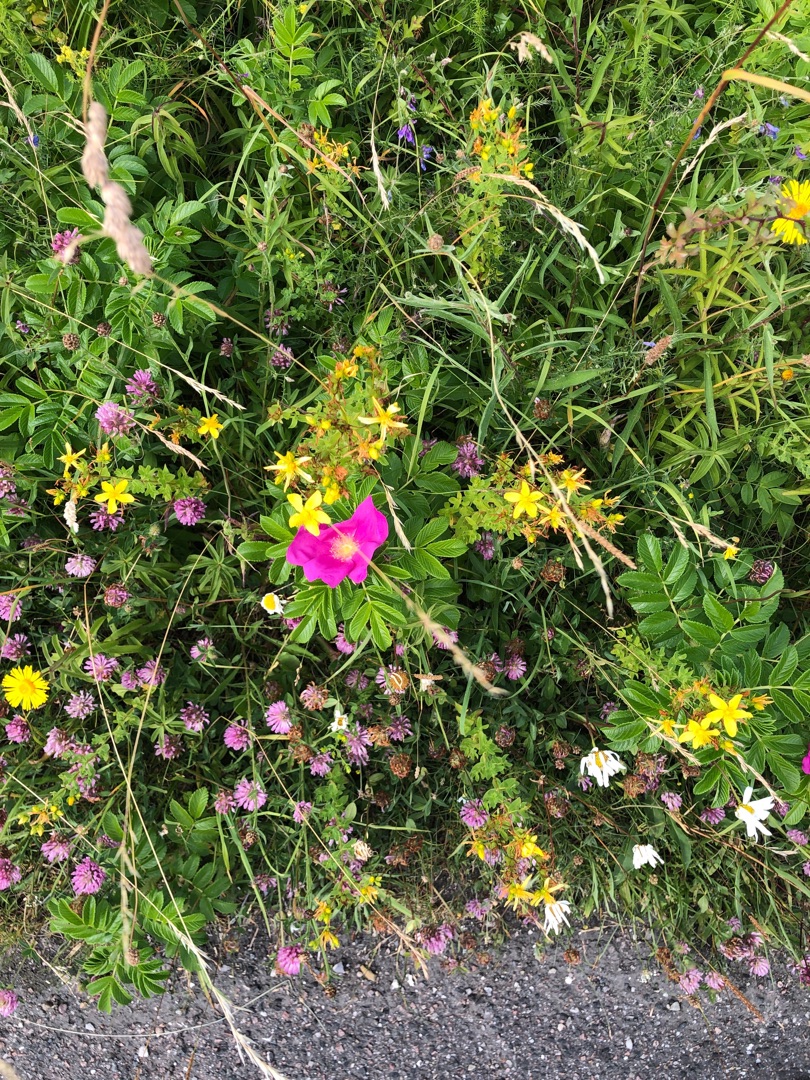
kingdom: Plantae
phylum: Tracheophyta
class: Magnoliopsida
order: Malpighiales
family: Hypericaceae
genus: Hypericum
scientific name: Hypericum perforatum
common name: Prikbladet perikon
